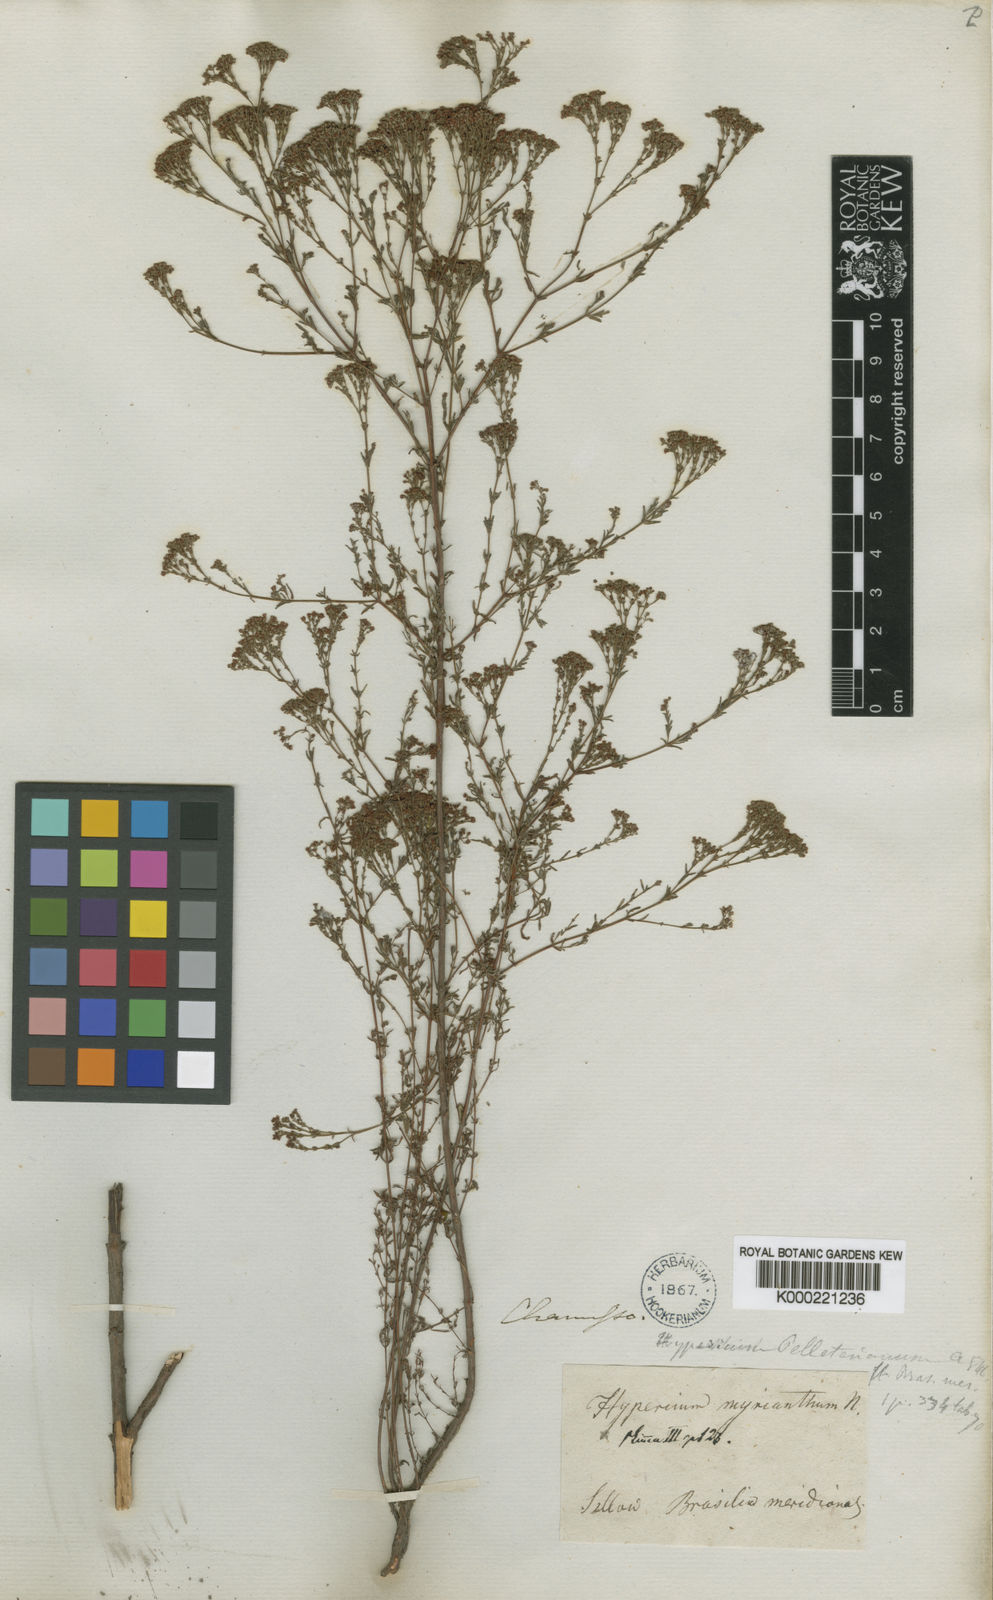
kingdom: Plantae
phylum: Tracheophyta
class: Magnoliopsida
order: Malpighiales
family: Hypericaceae
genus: Hypericum
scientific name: Hypericum myrianthum
